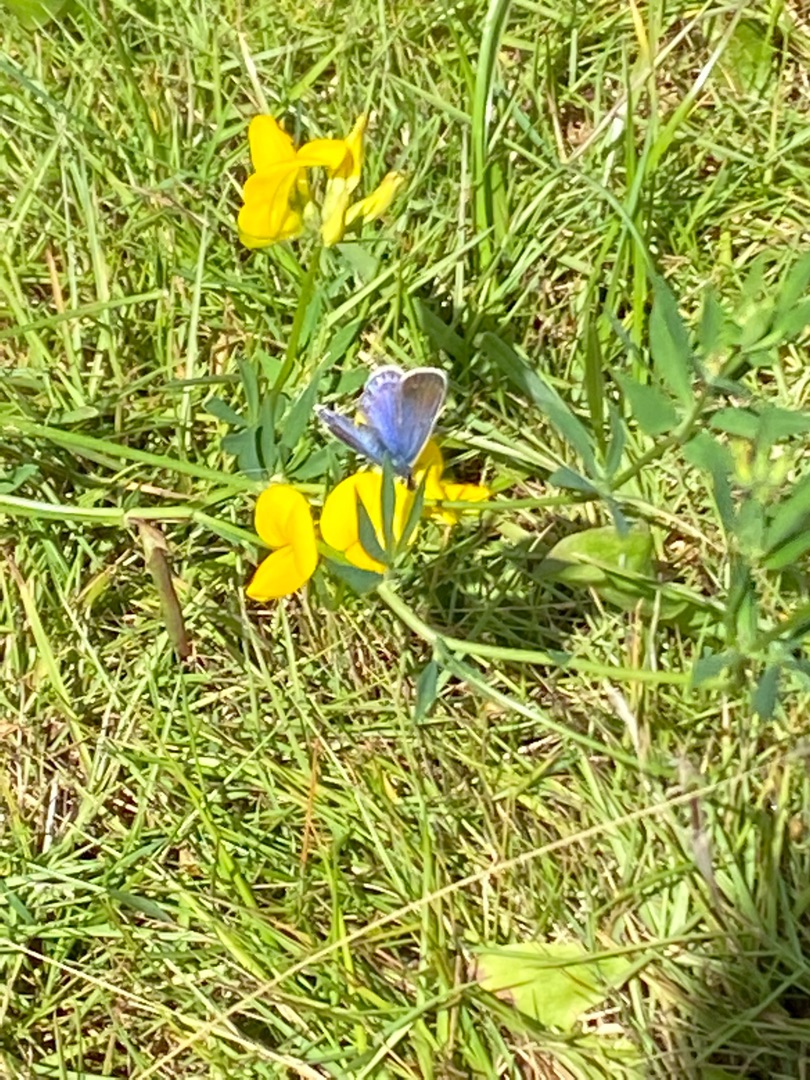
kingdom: Animalia
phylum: Arthropoda
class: Insecta
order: Lepidoptera
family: Lycaenidae
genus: Polyommatus
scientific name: Polyommatus icarus
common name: Almindelig blåfugl
